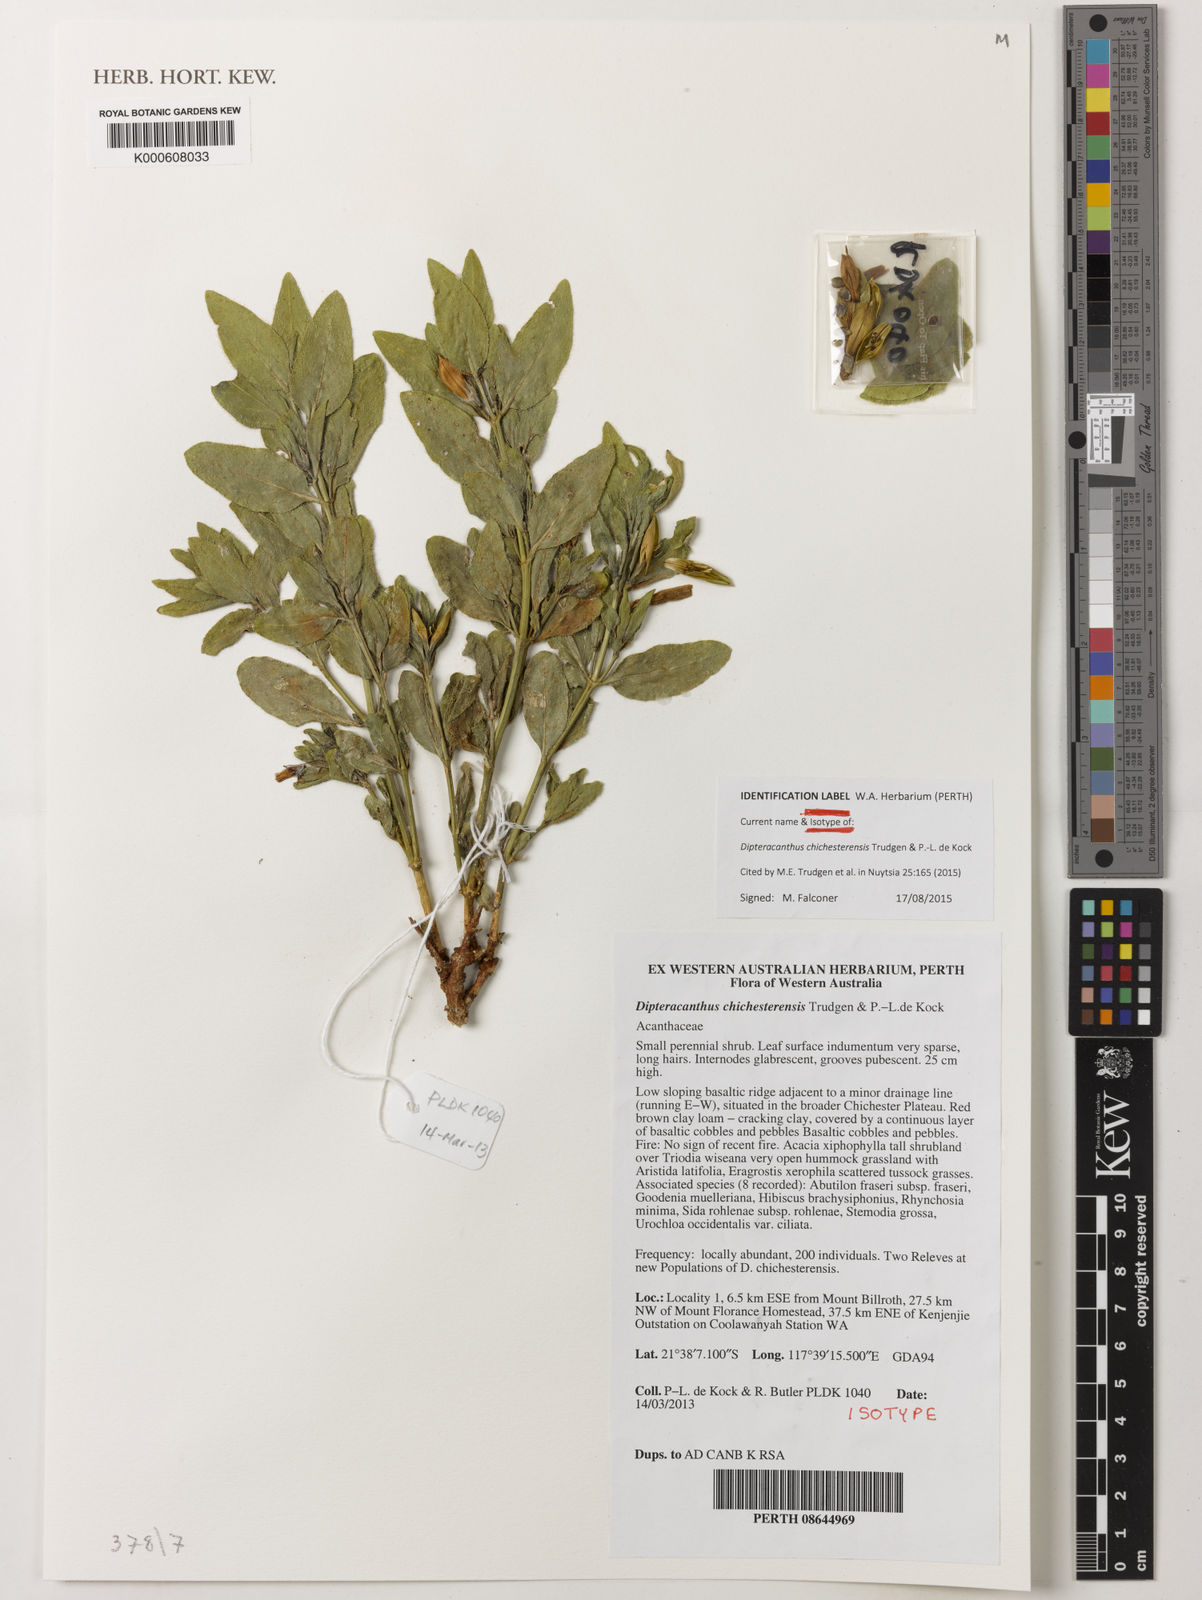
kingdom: Plantae
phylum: Tracheophyta
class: Magnoliopsida
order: Lamiales
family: Acanthaceae
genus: Ruellia
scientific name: Ruellia
